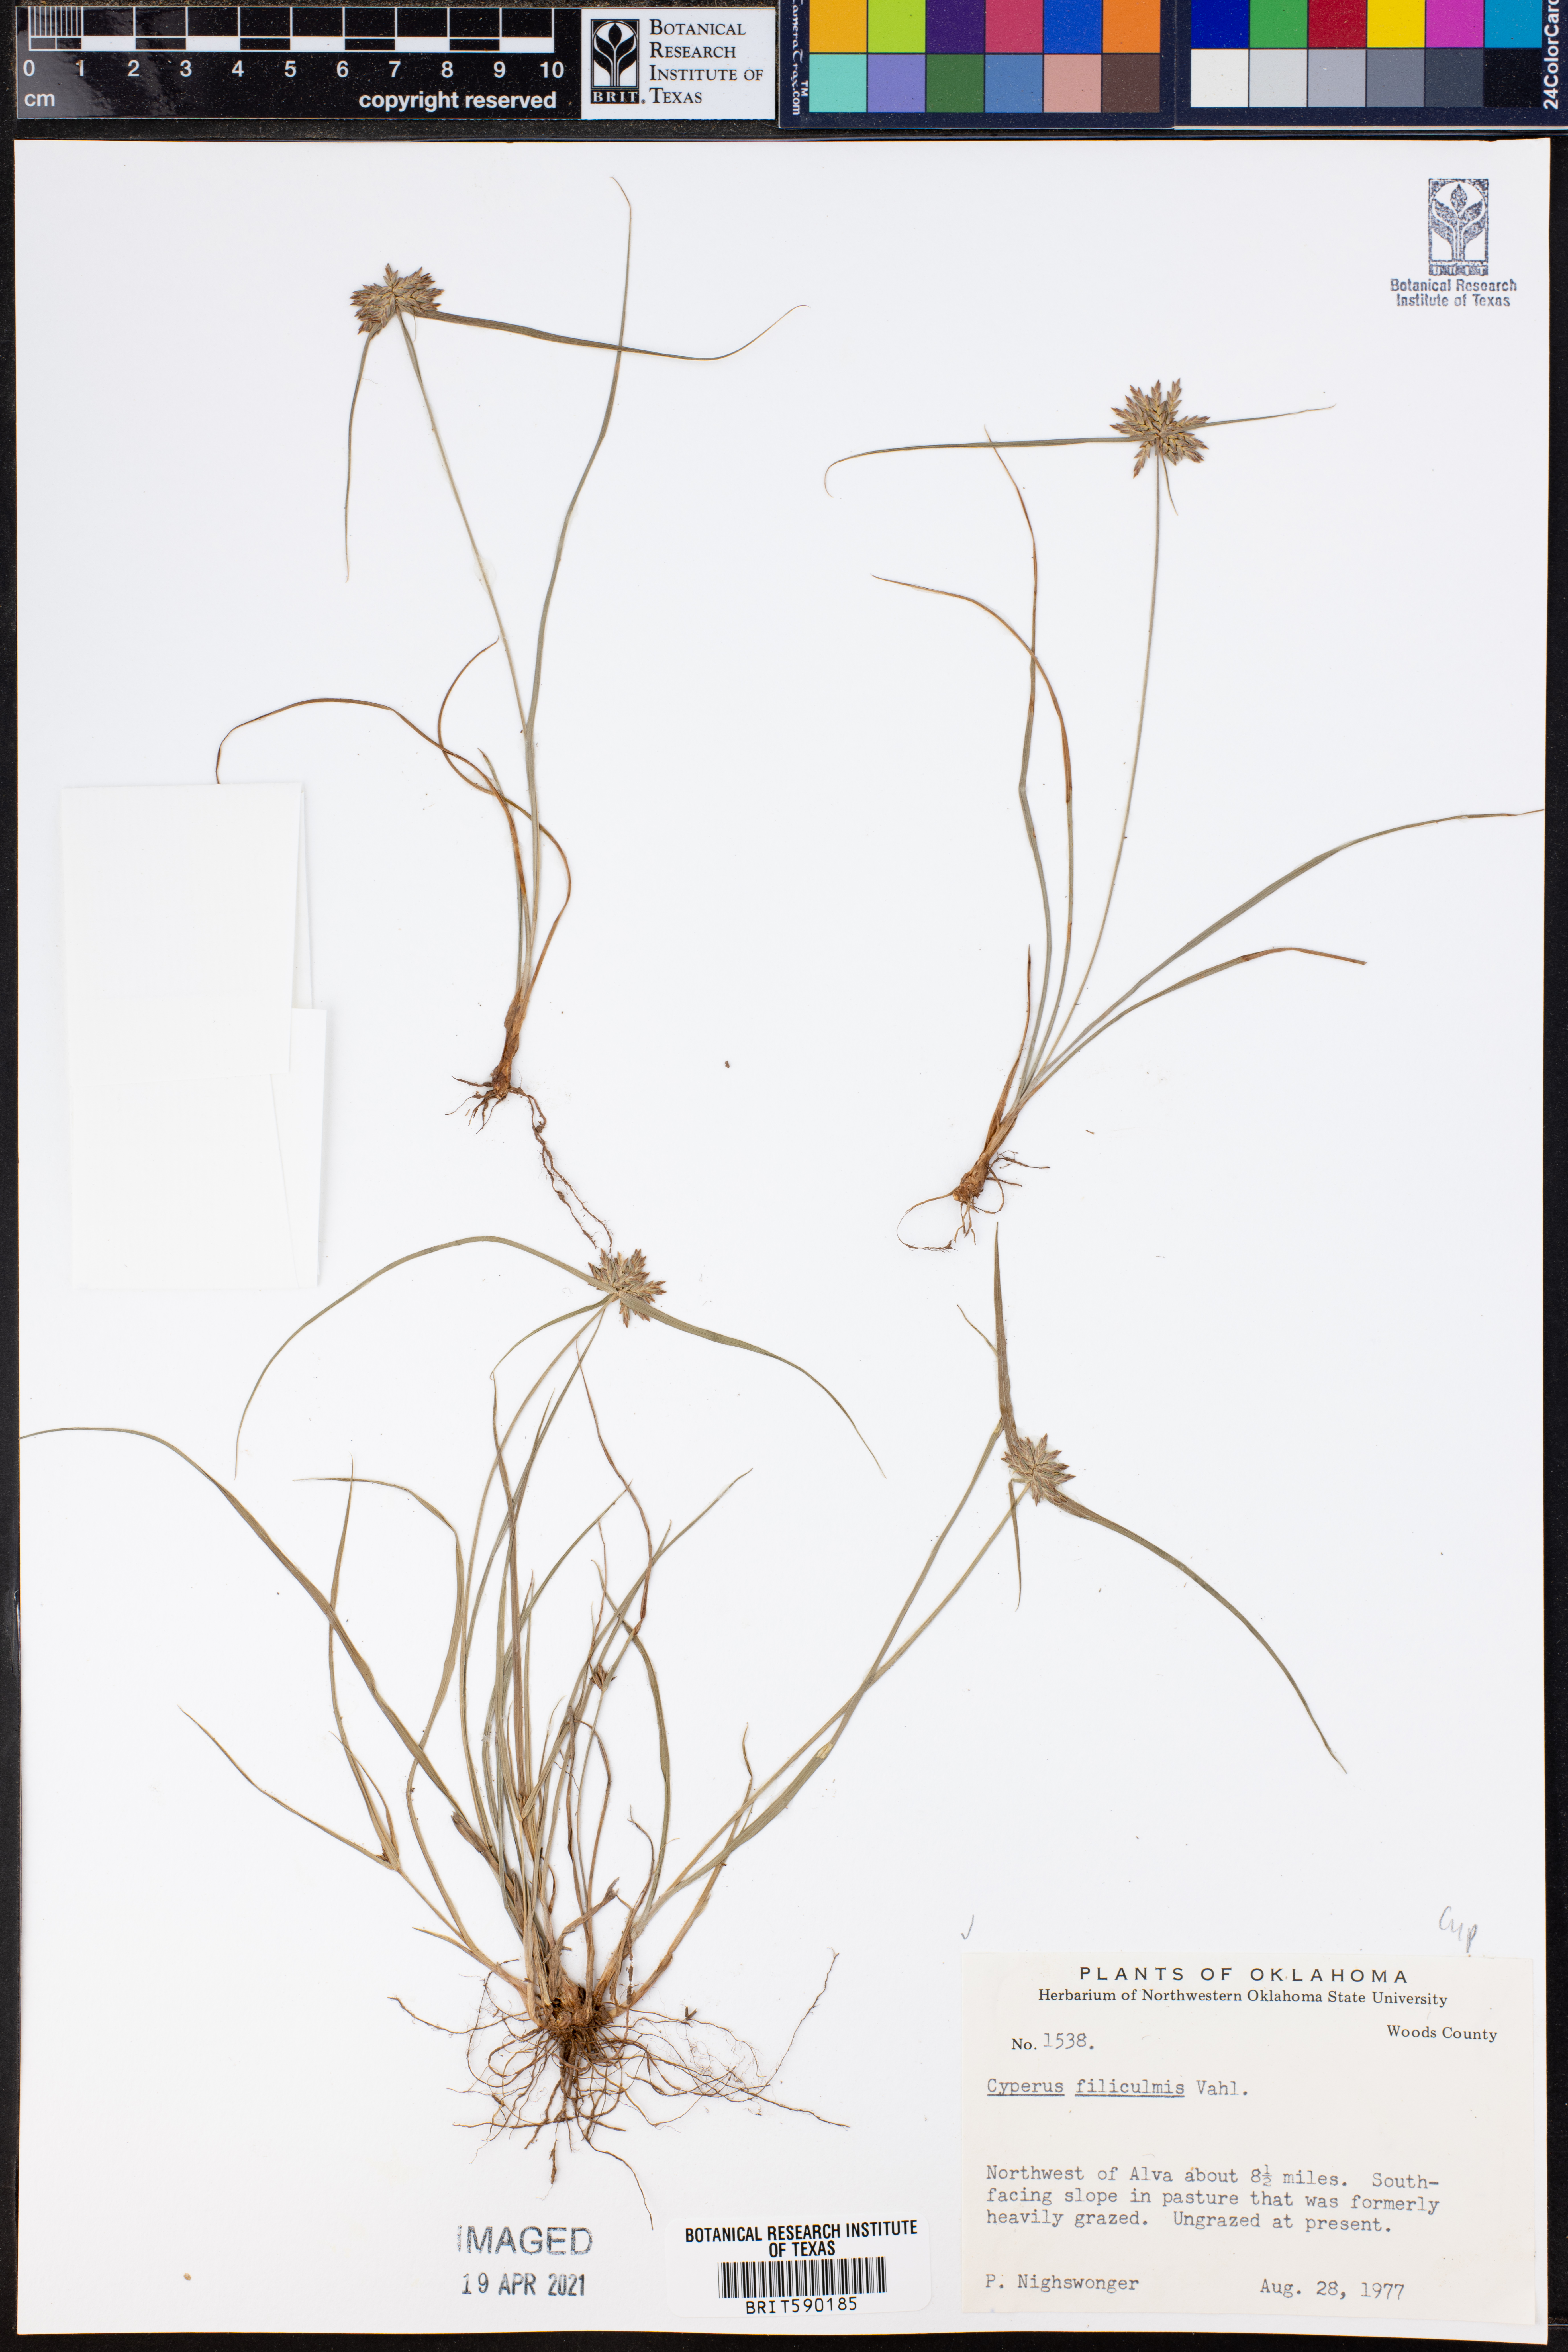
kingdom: Plantae
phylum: Tracheophyta
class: Liliopsida
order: Poales
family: Cyperaceae
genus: Cyperus
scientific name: Cyperus lanceolatus
